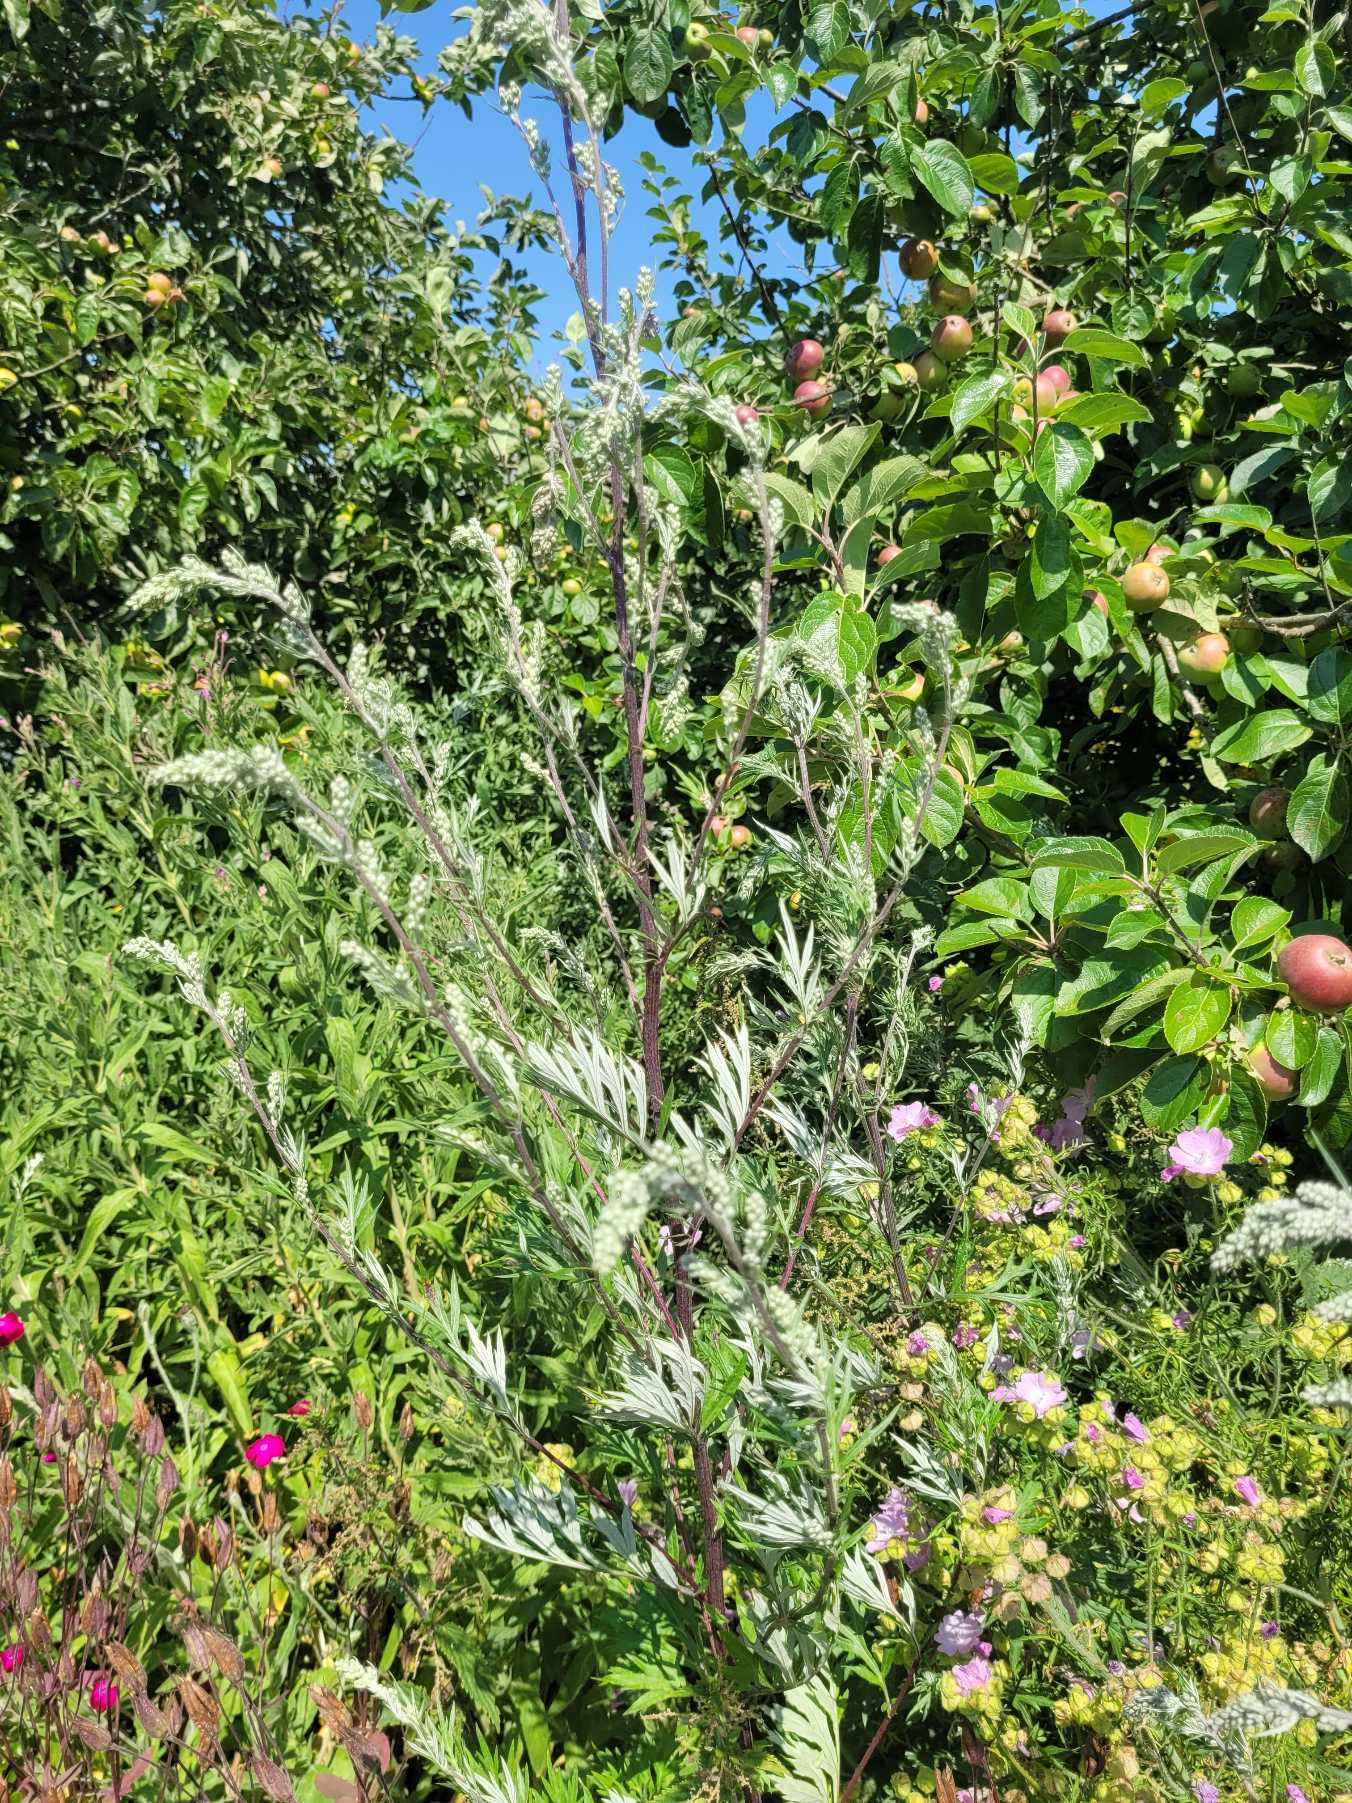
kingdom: Plantae
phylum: Tracheophyta
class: Magnoliopsida
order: Asterales
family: Asteraceae
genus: Artemisia
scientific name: Artemisia vulgaris
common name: Grå-bynke
